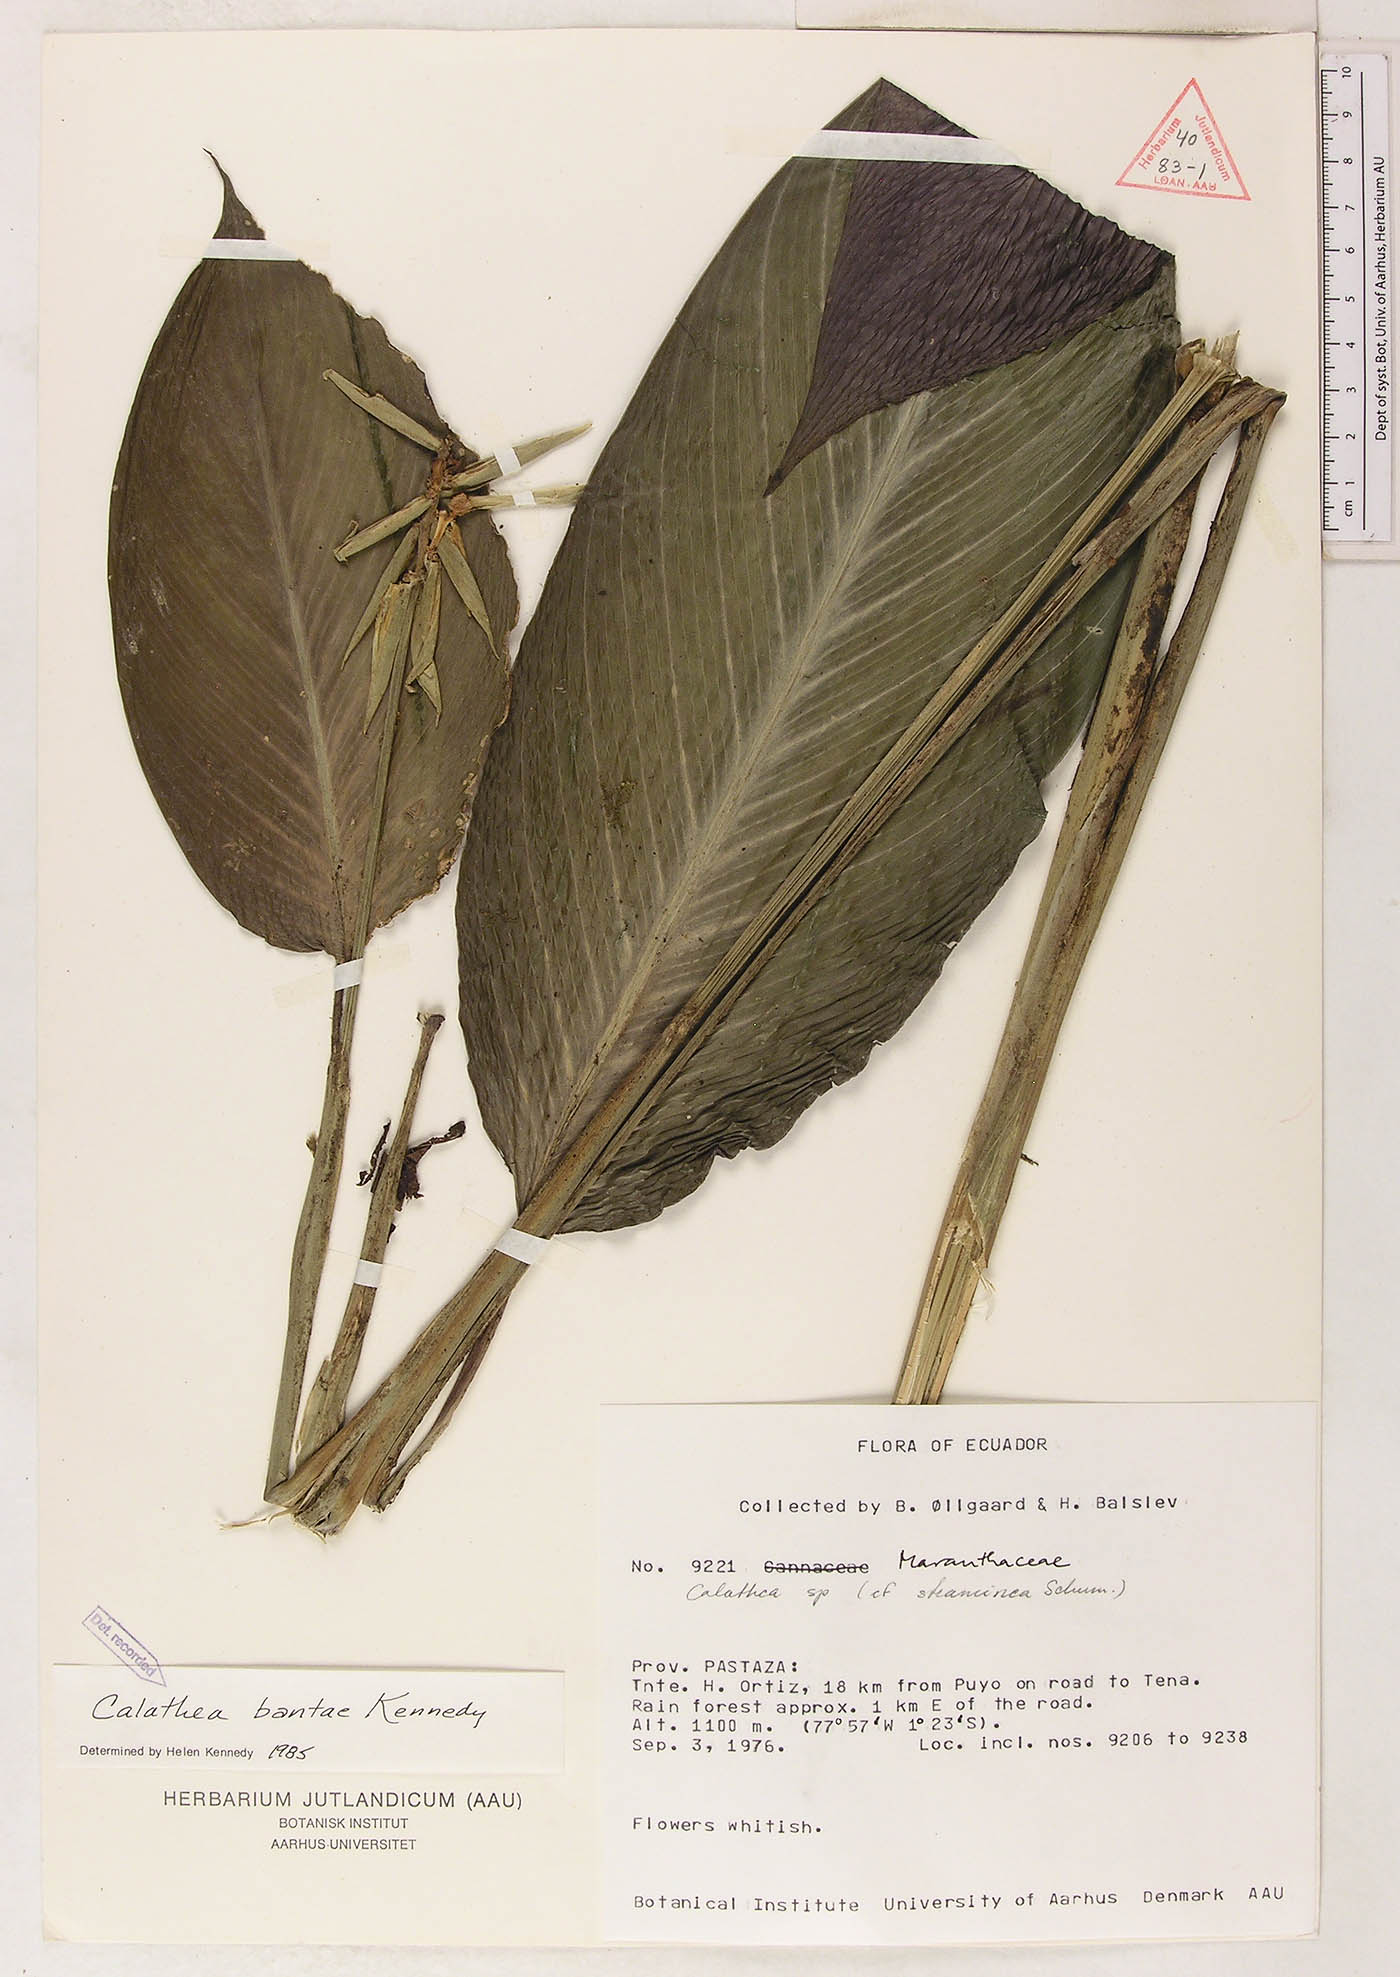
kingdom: Plantae
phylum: Tracheophyta
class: Liliopsida
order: Zingiberales
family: Marantaceae
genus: Goeppertia
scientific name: Goeppertia bantae
